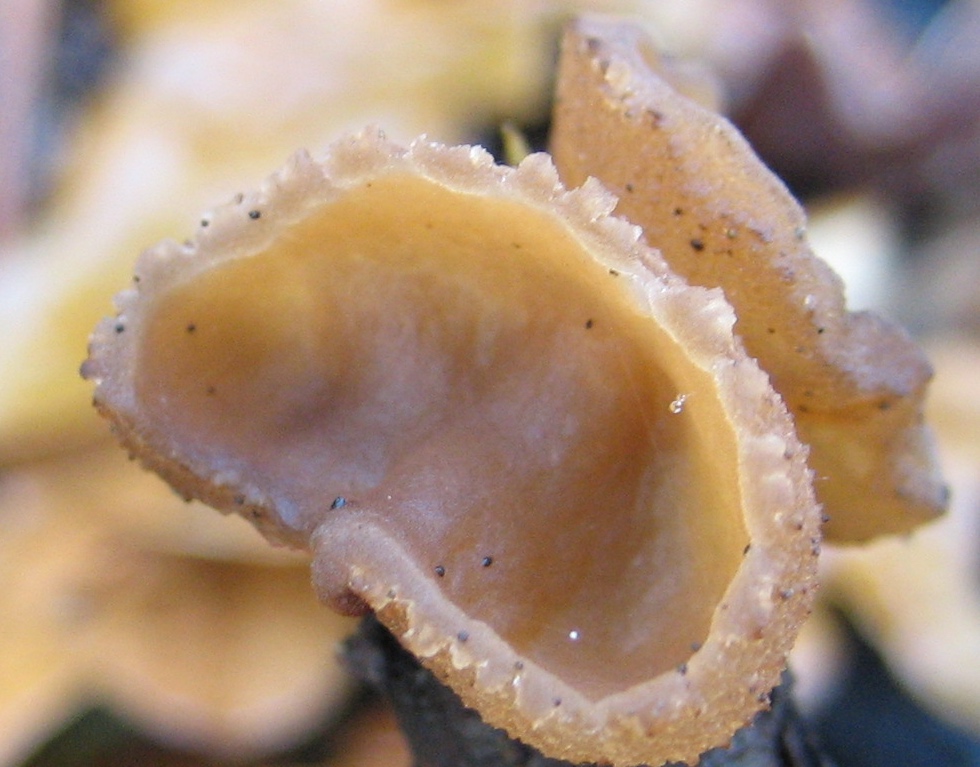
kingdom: Fungi
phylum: Ascomycota
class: Pezizomycetes
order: Pezizales
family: Pezizaceae
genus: Peziza
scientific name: Peziza
